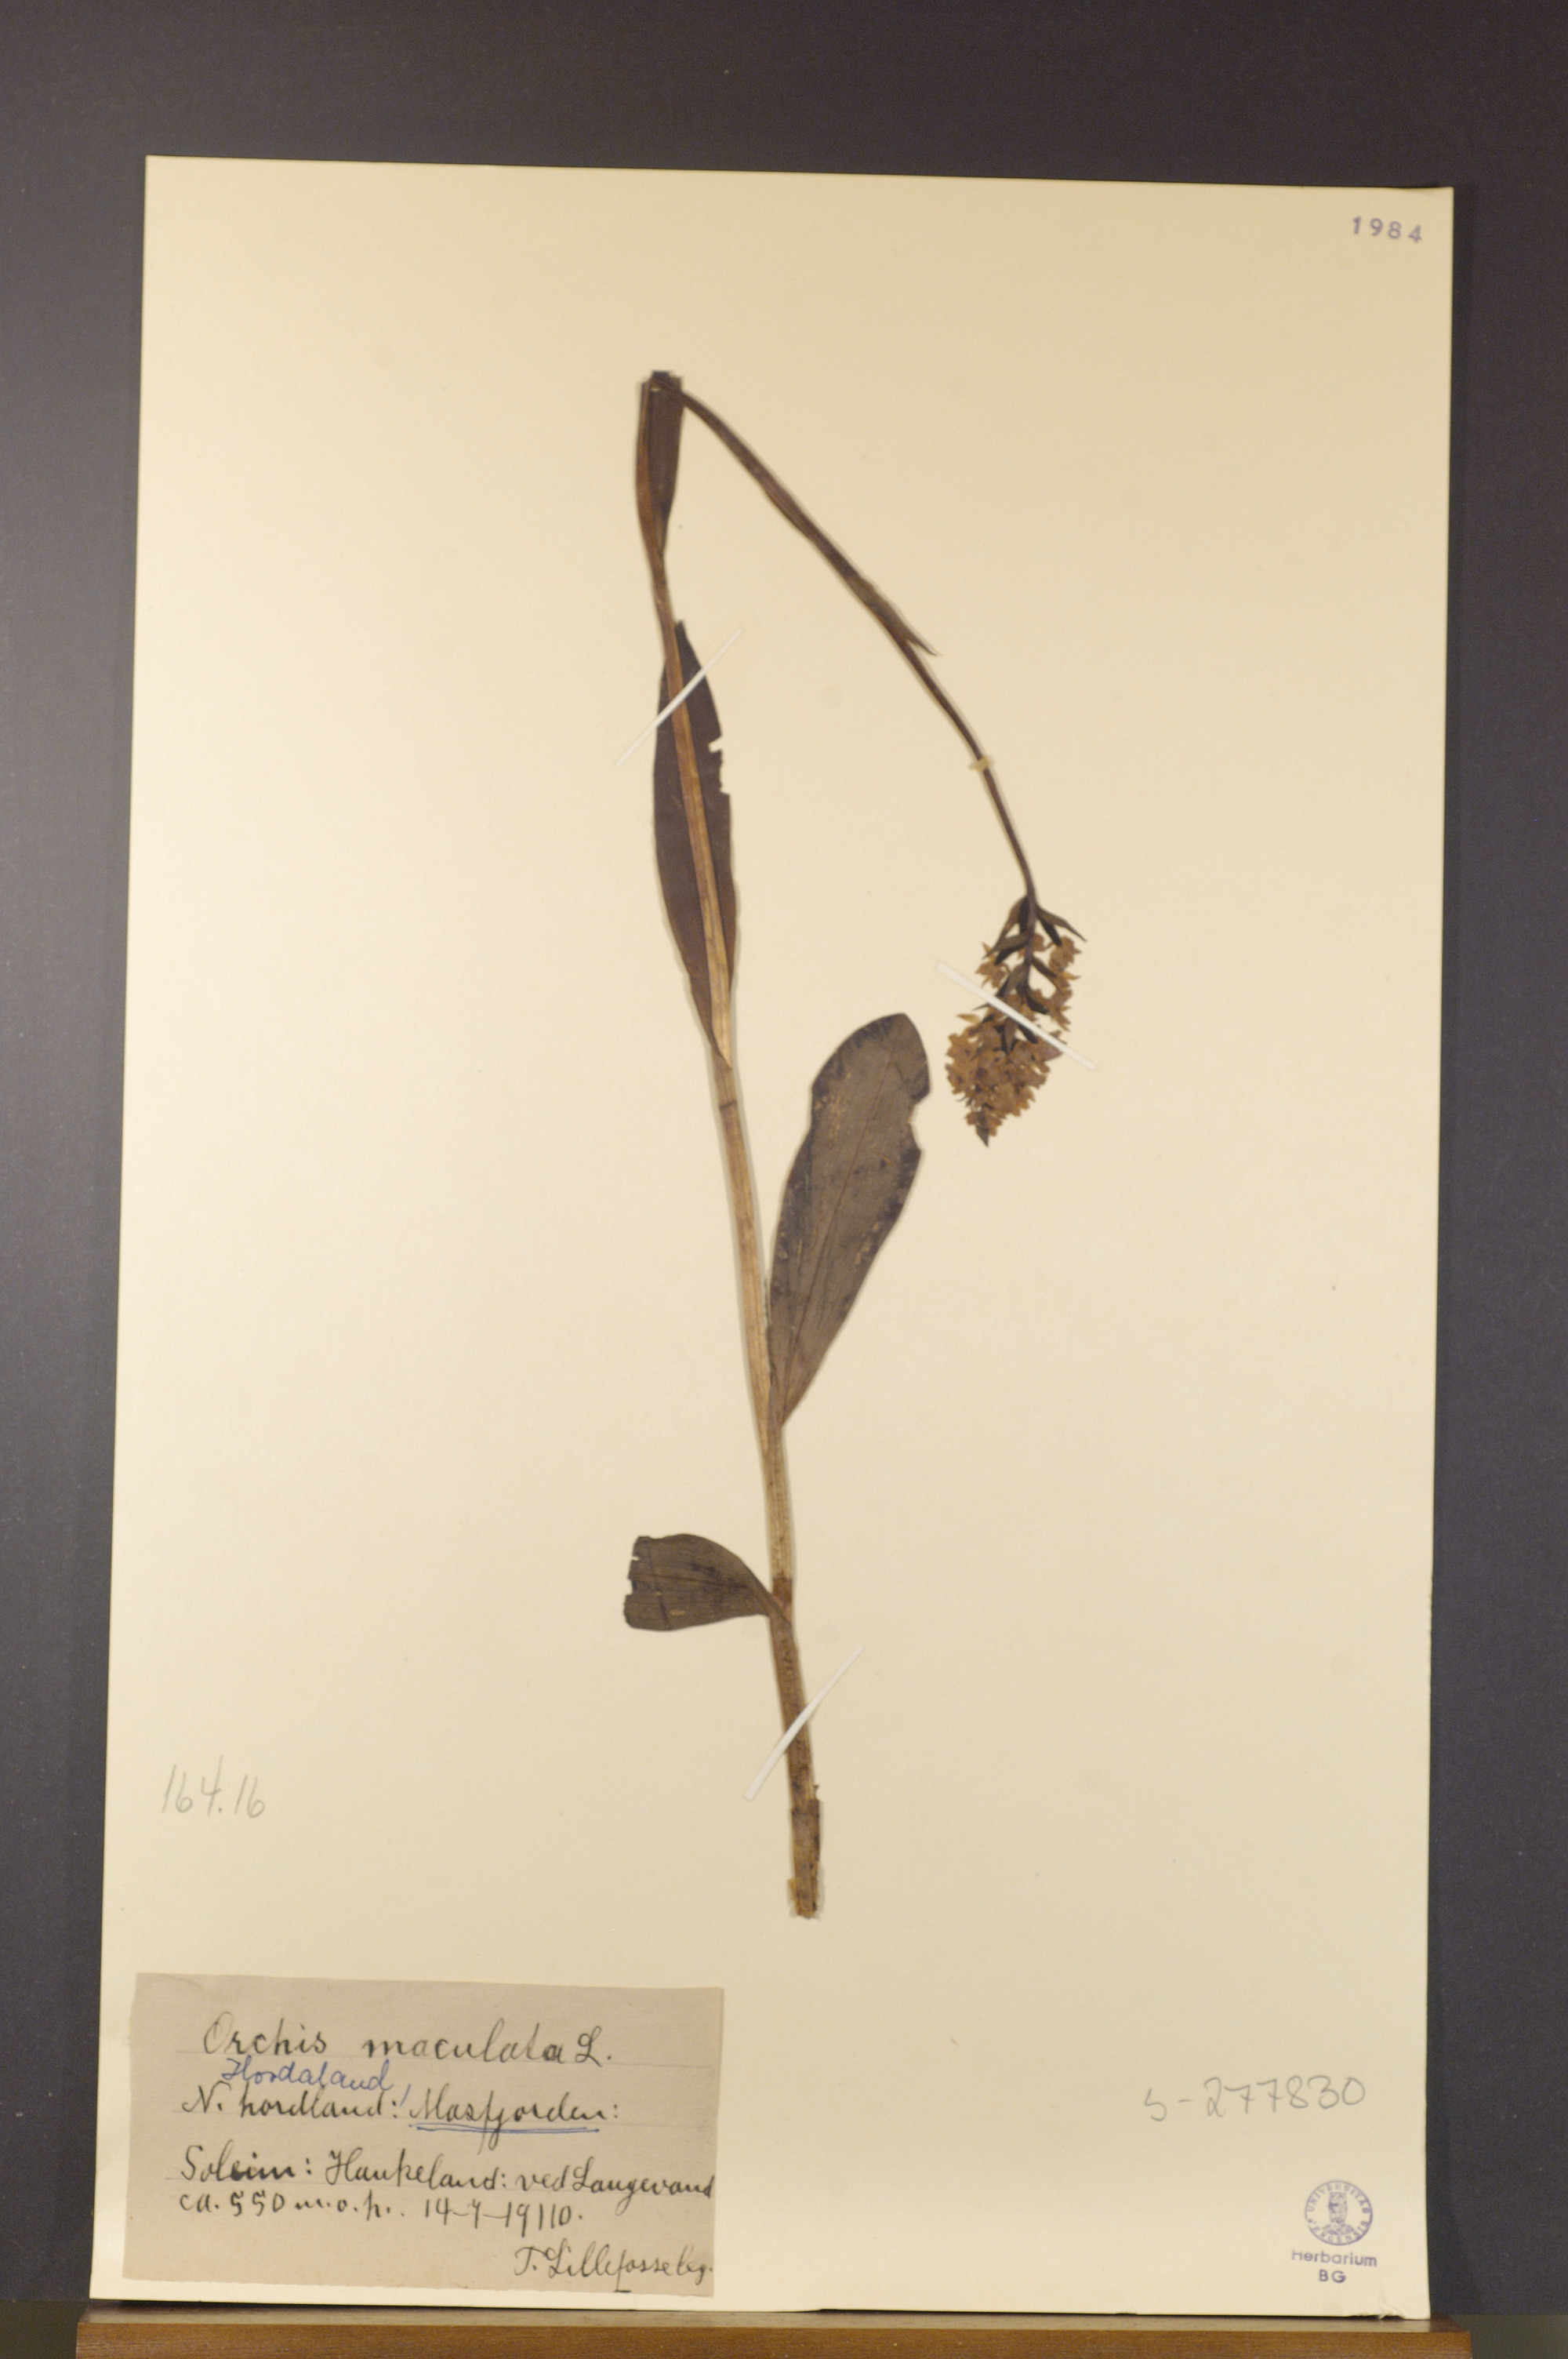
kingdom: Plantae
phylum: Tracheophyta
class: Liliopsida
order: Asparagales
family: Orchidaceae
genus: Dactylorhiza
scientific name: Dactylorhiza maculata
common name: Heath spotted-orchid
